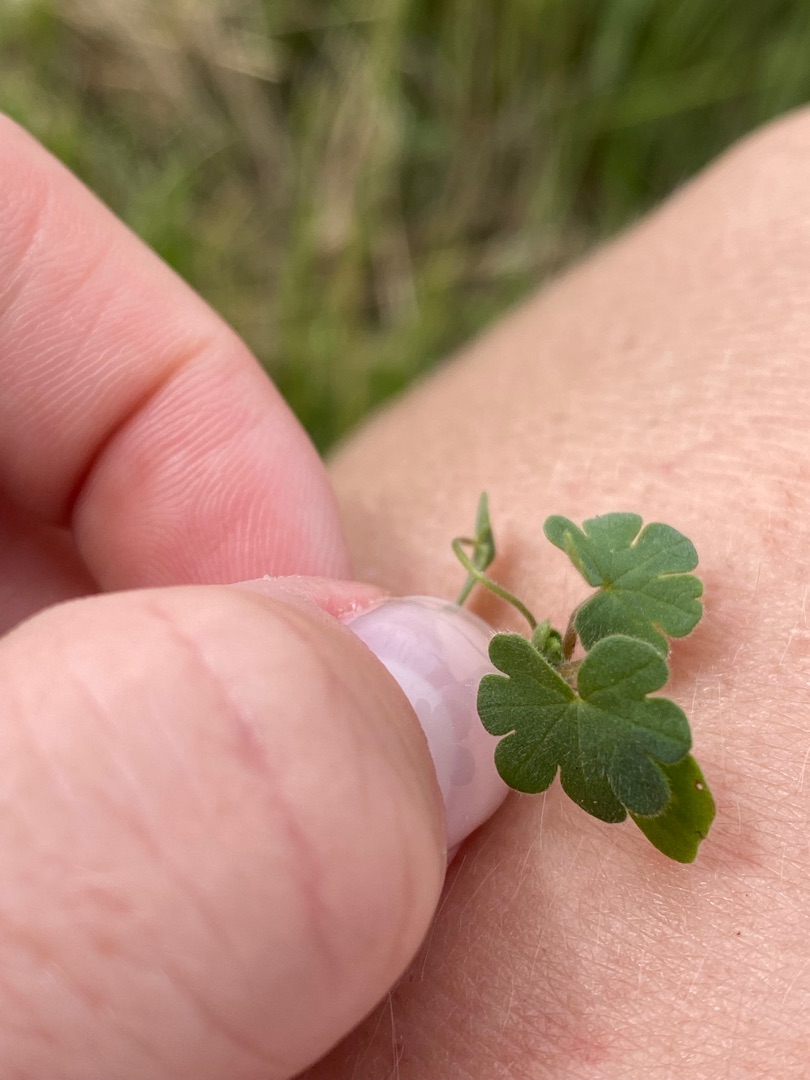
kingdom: Plantae
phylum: Tracheophyta
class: Magnoliopsida
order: Geraniales
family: Geraniaceae
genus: Geranium
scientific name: Geranium molle
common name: Blød storkenæb
